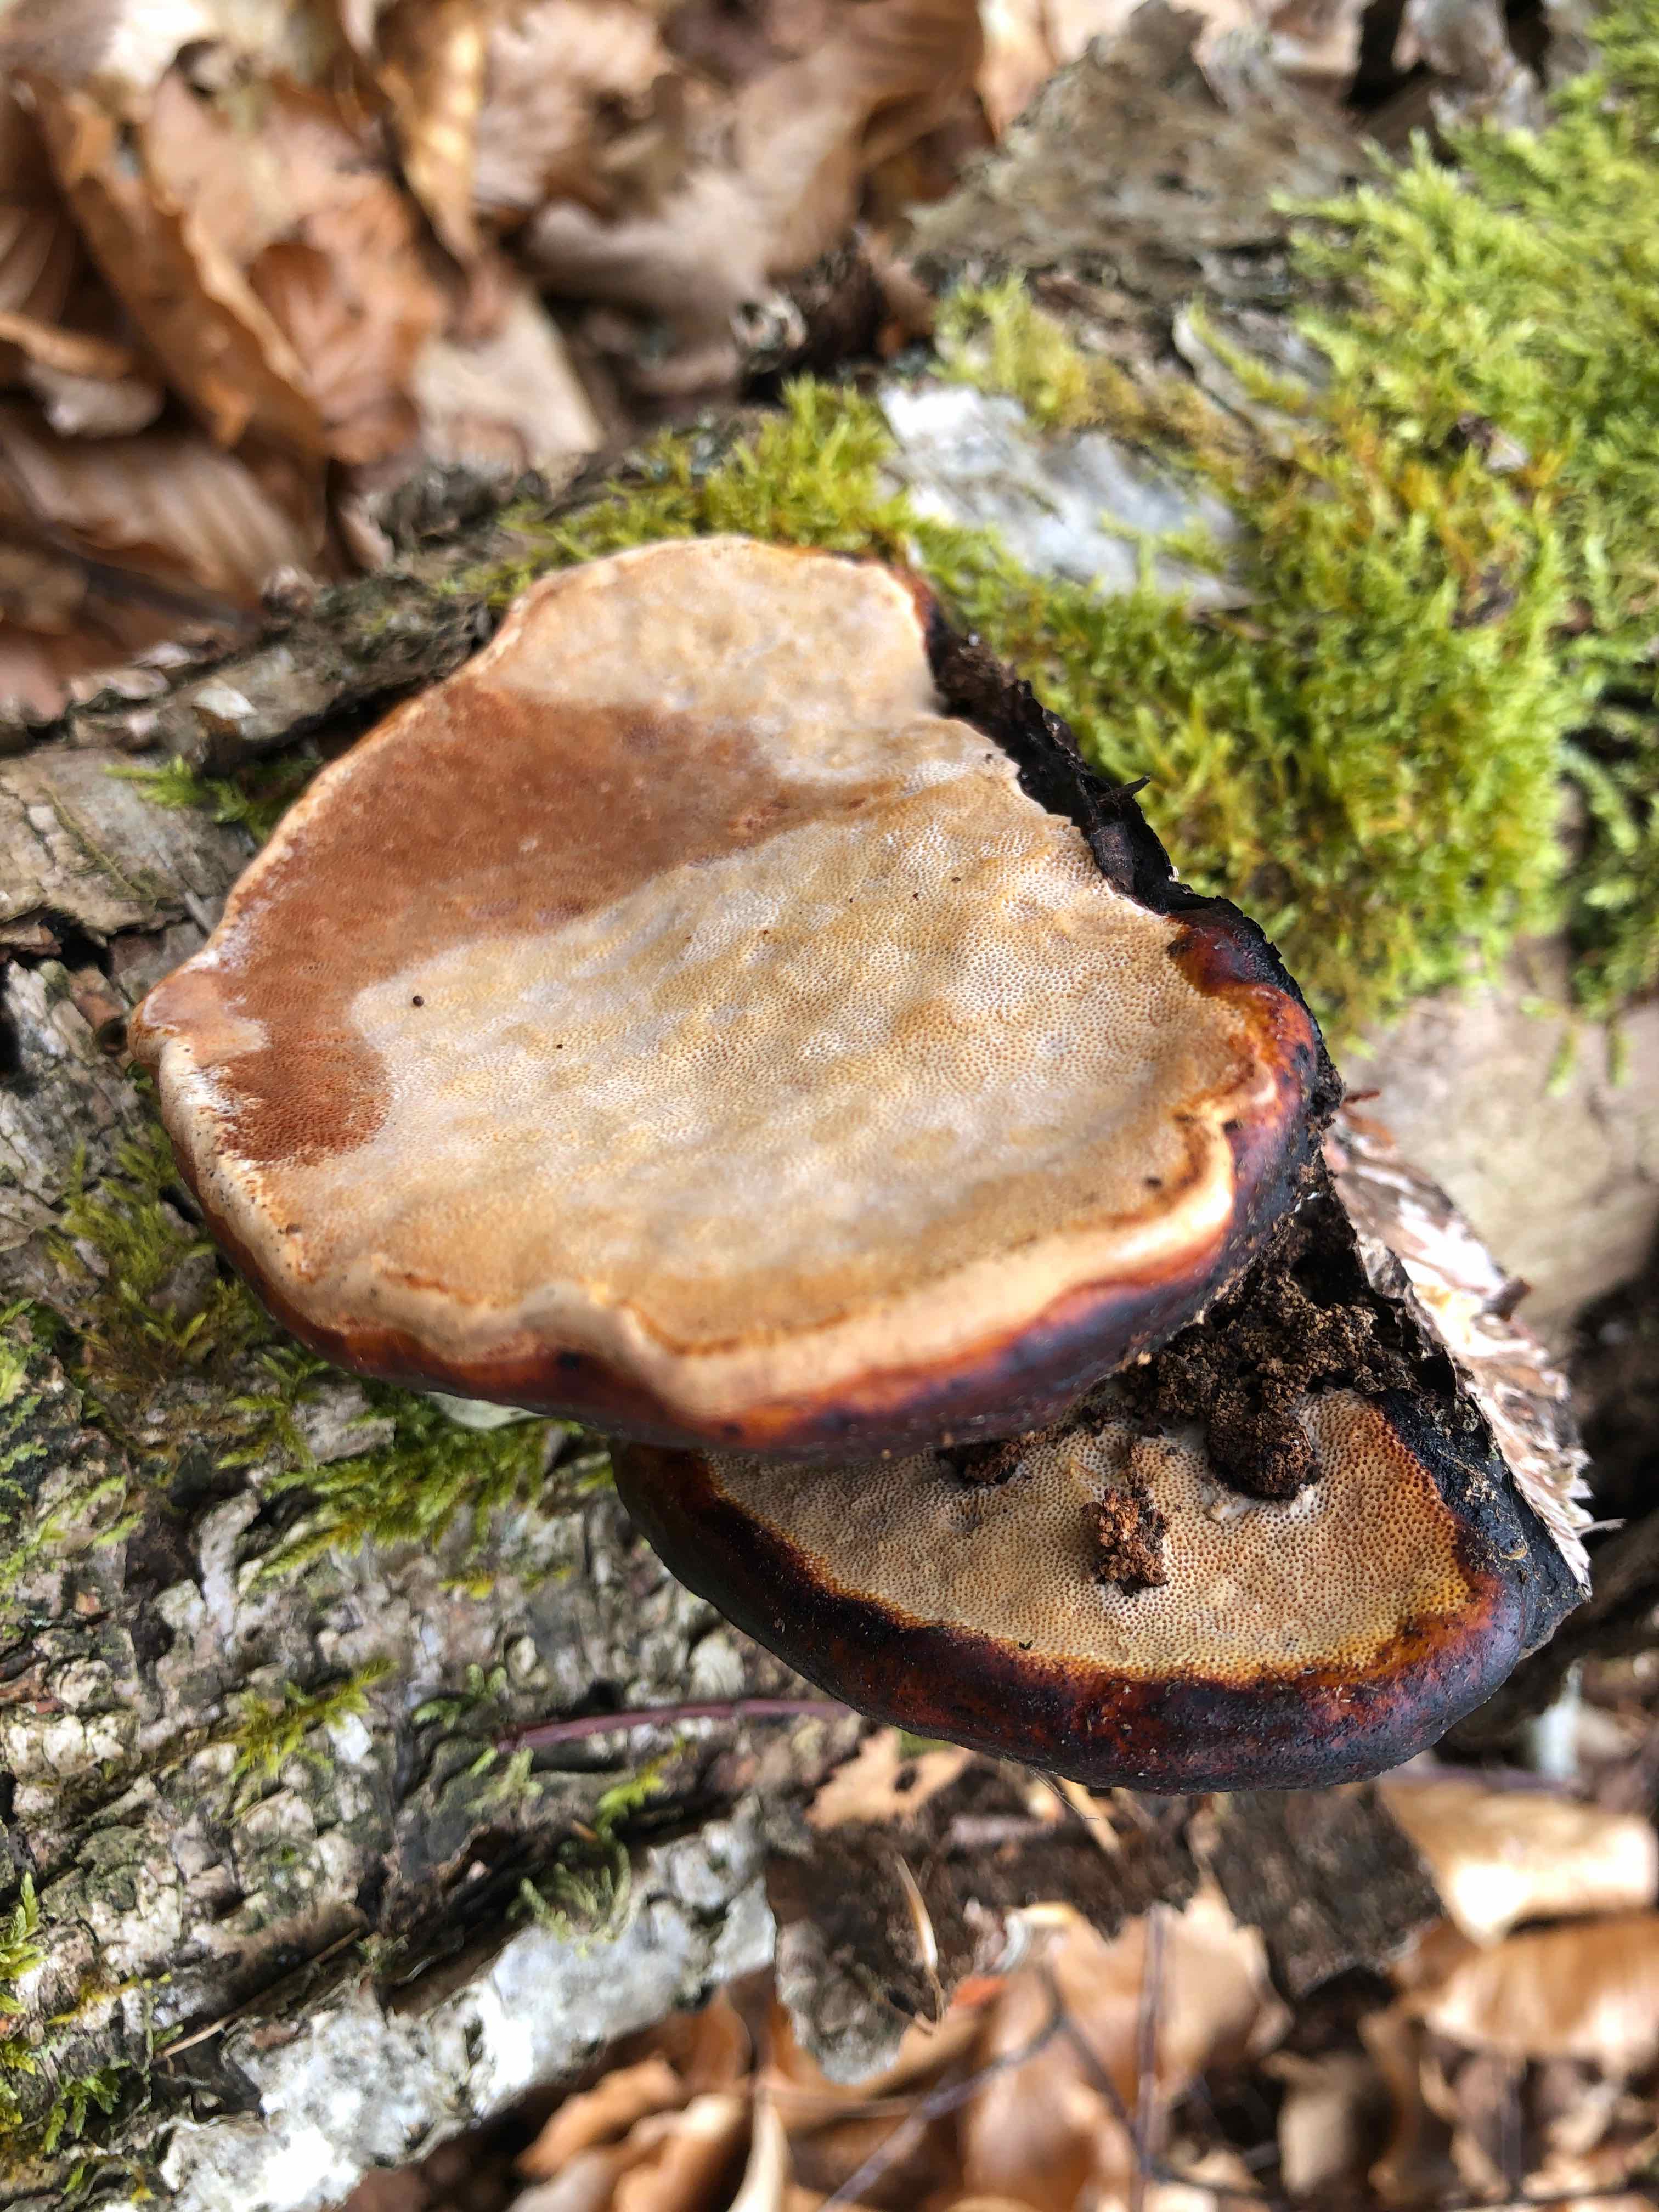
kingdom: Fungi
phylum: Basidiomycota
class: Agaricomycetes
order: Polyporales
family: Fomitopsidaceae
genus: Fomitopsis
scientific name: Fomitopsis pinicola
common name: randbæltet hovporesvamp
